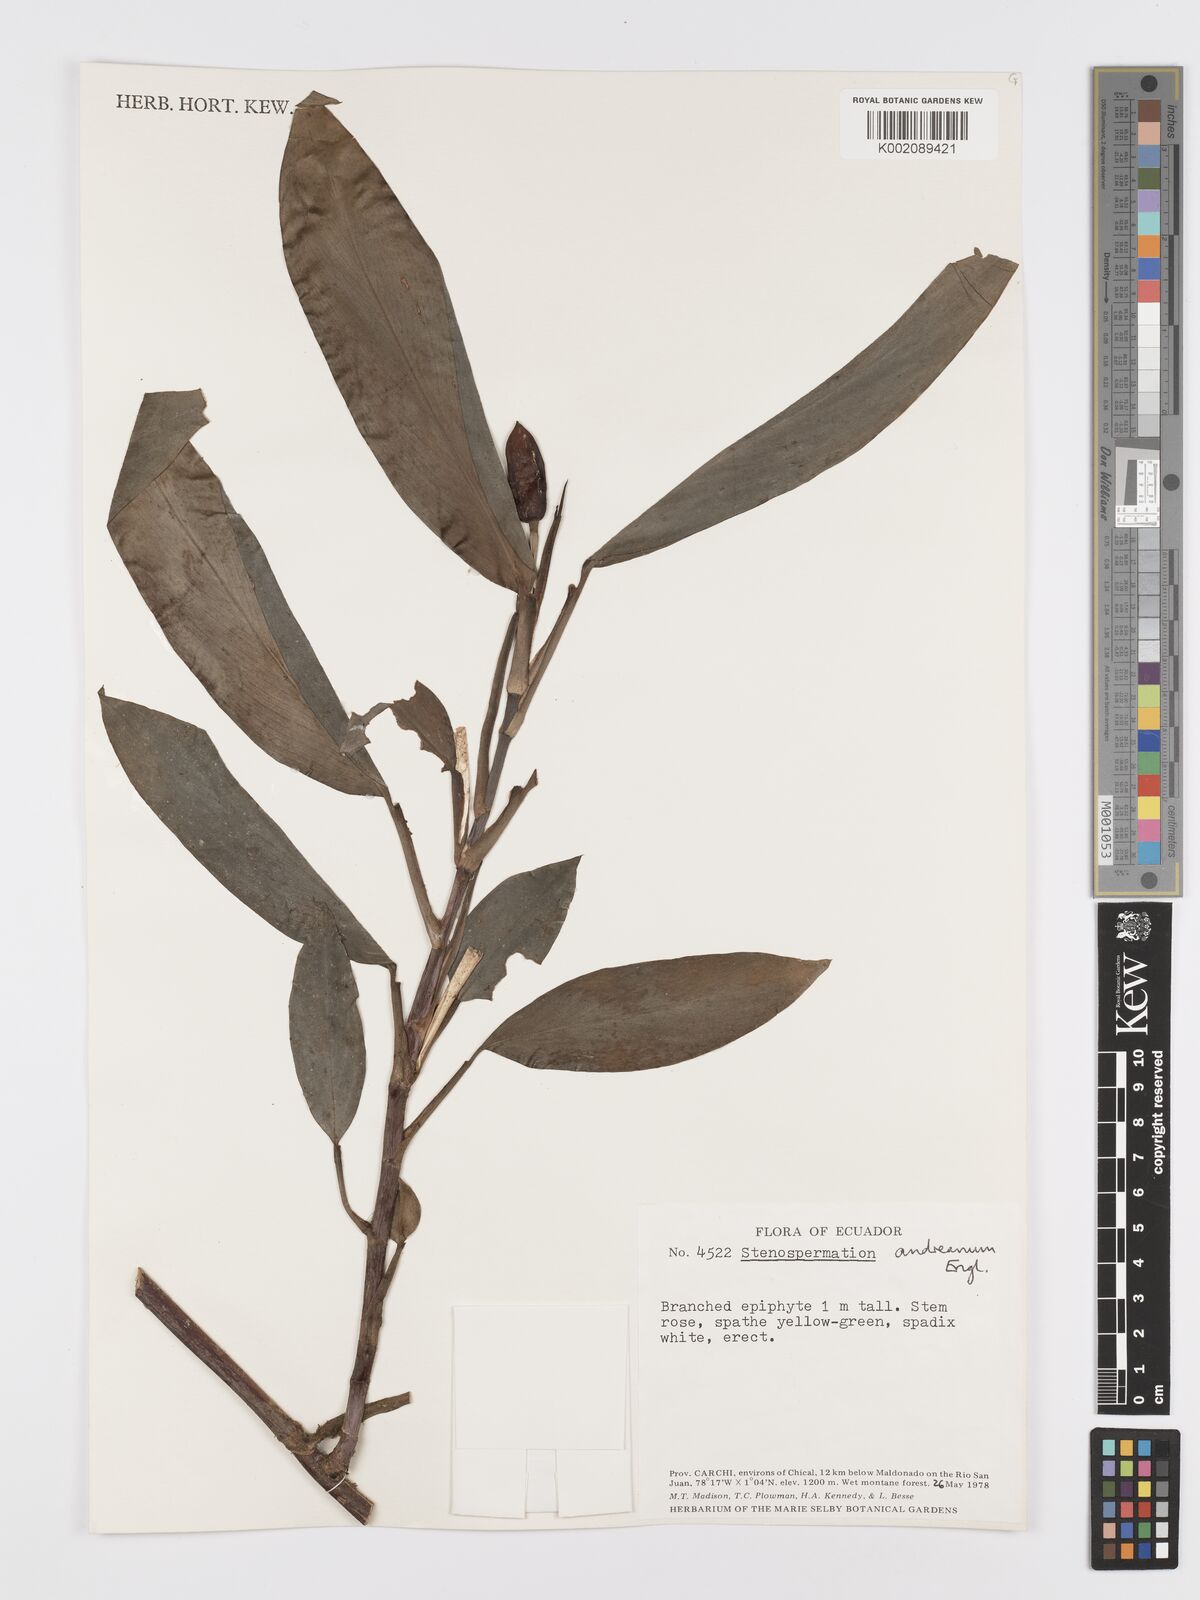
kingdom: Plantae
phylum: Tracheophyta
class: Liliopsida
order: Alismatales
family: Araceae
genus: Stenospermation
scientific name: Stenospermation andreanum
